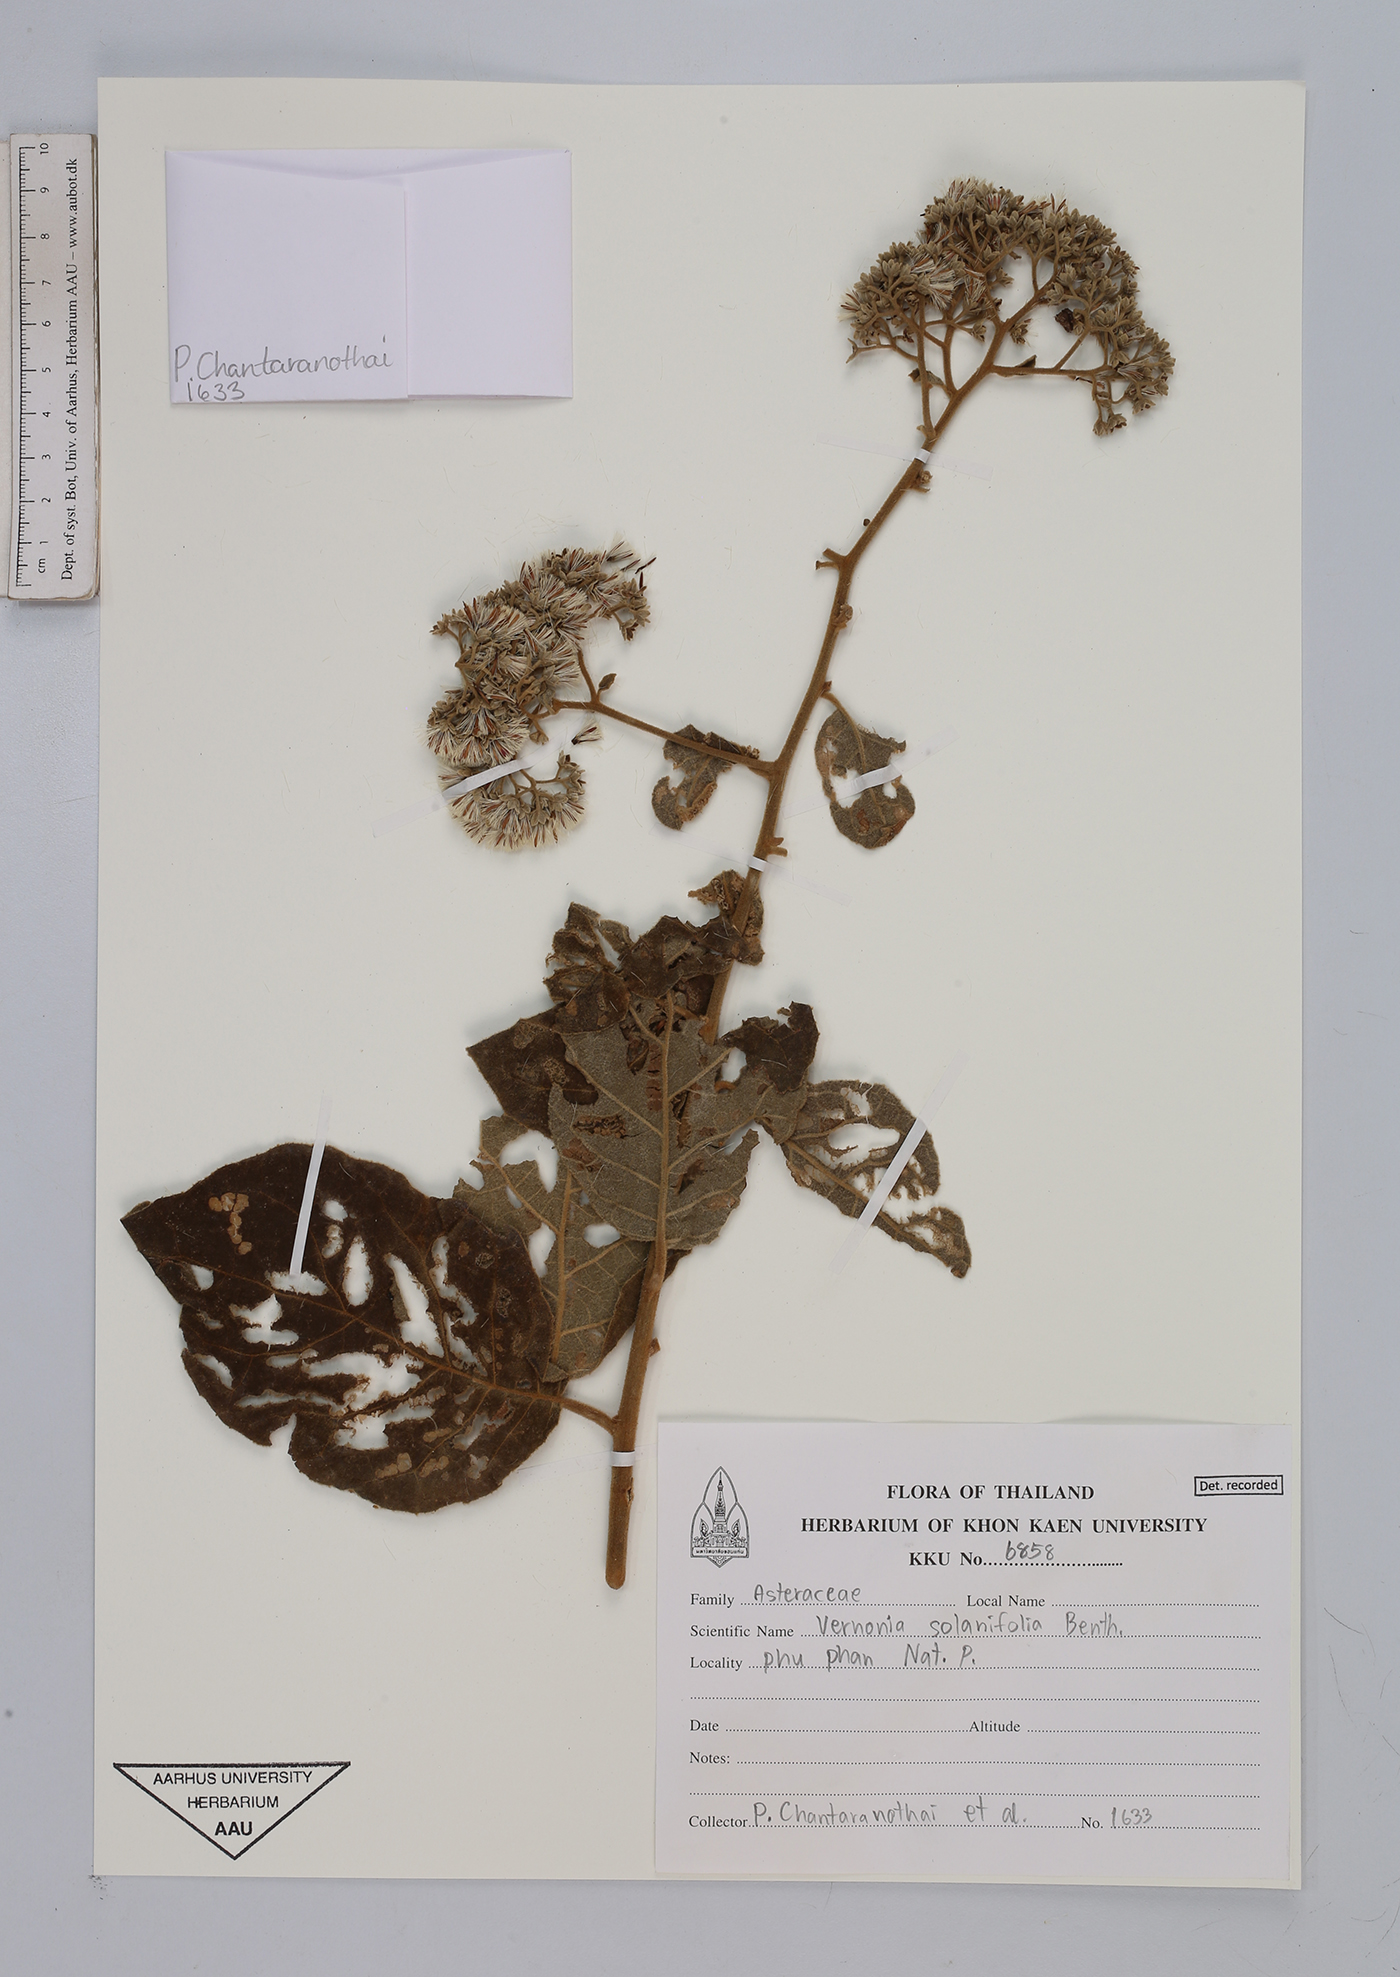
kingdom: Plantae
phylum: Tracheophyta
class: Magnoliopsida
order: Asterales
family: Asteraceae
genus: Strobocalyx
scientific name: Strobocalyx solanifolia
